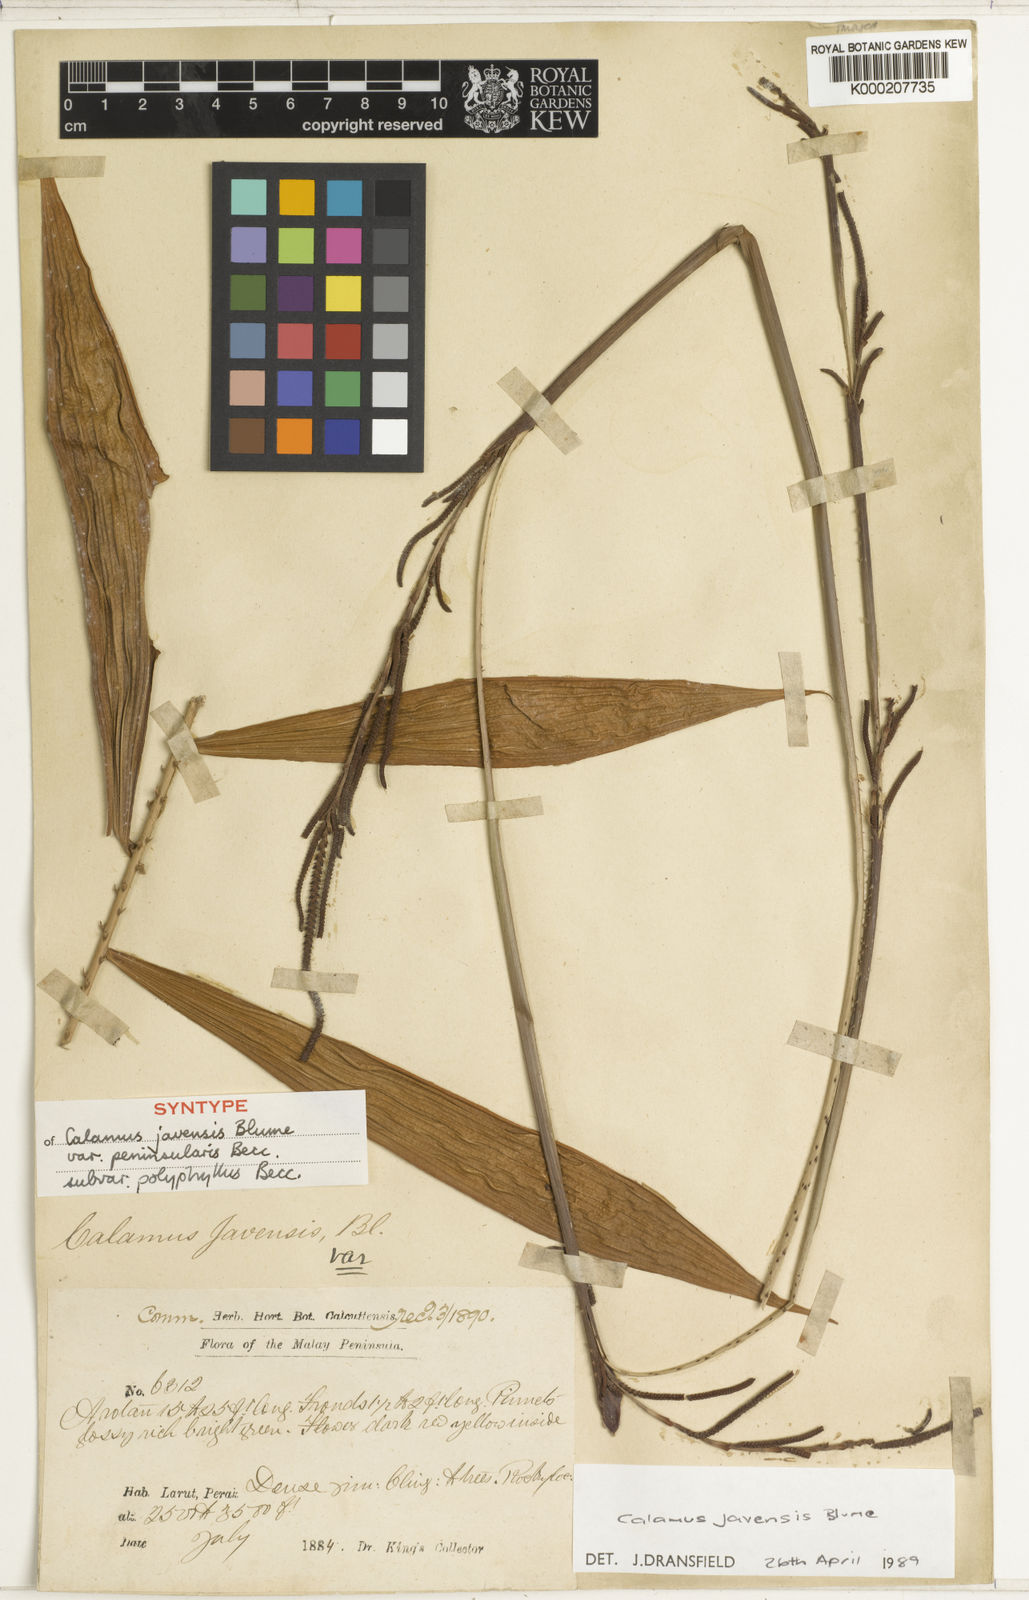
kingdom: Plantae
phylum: Tracheophyta
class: Liliopsida
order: Arecales
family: Arecaceae
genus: Calamus
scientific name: Calamus javensis
